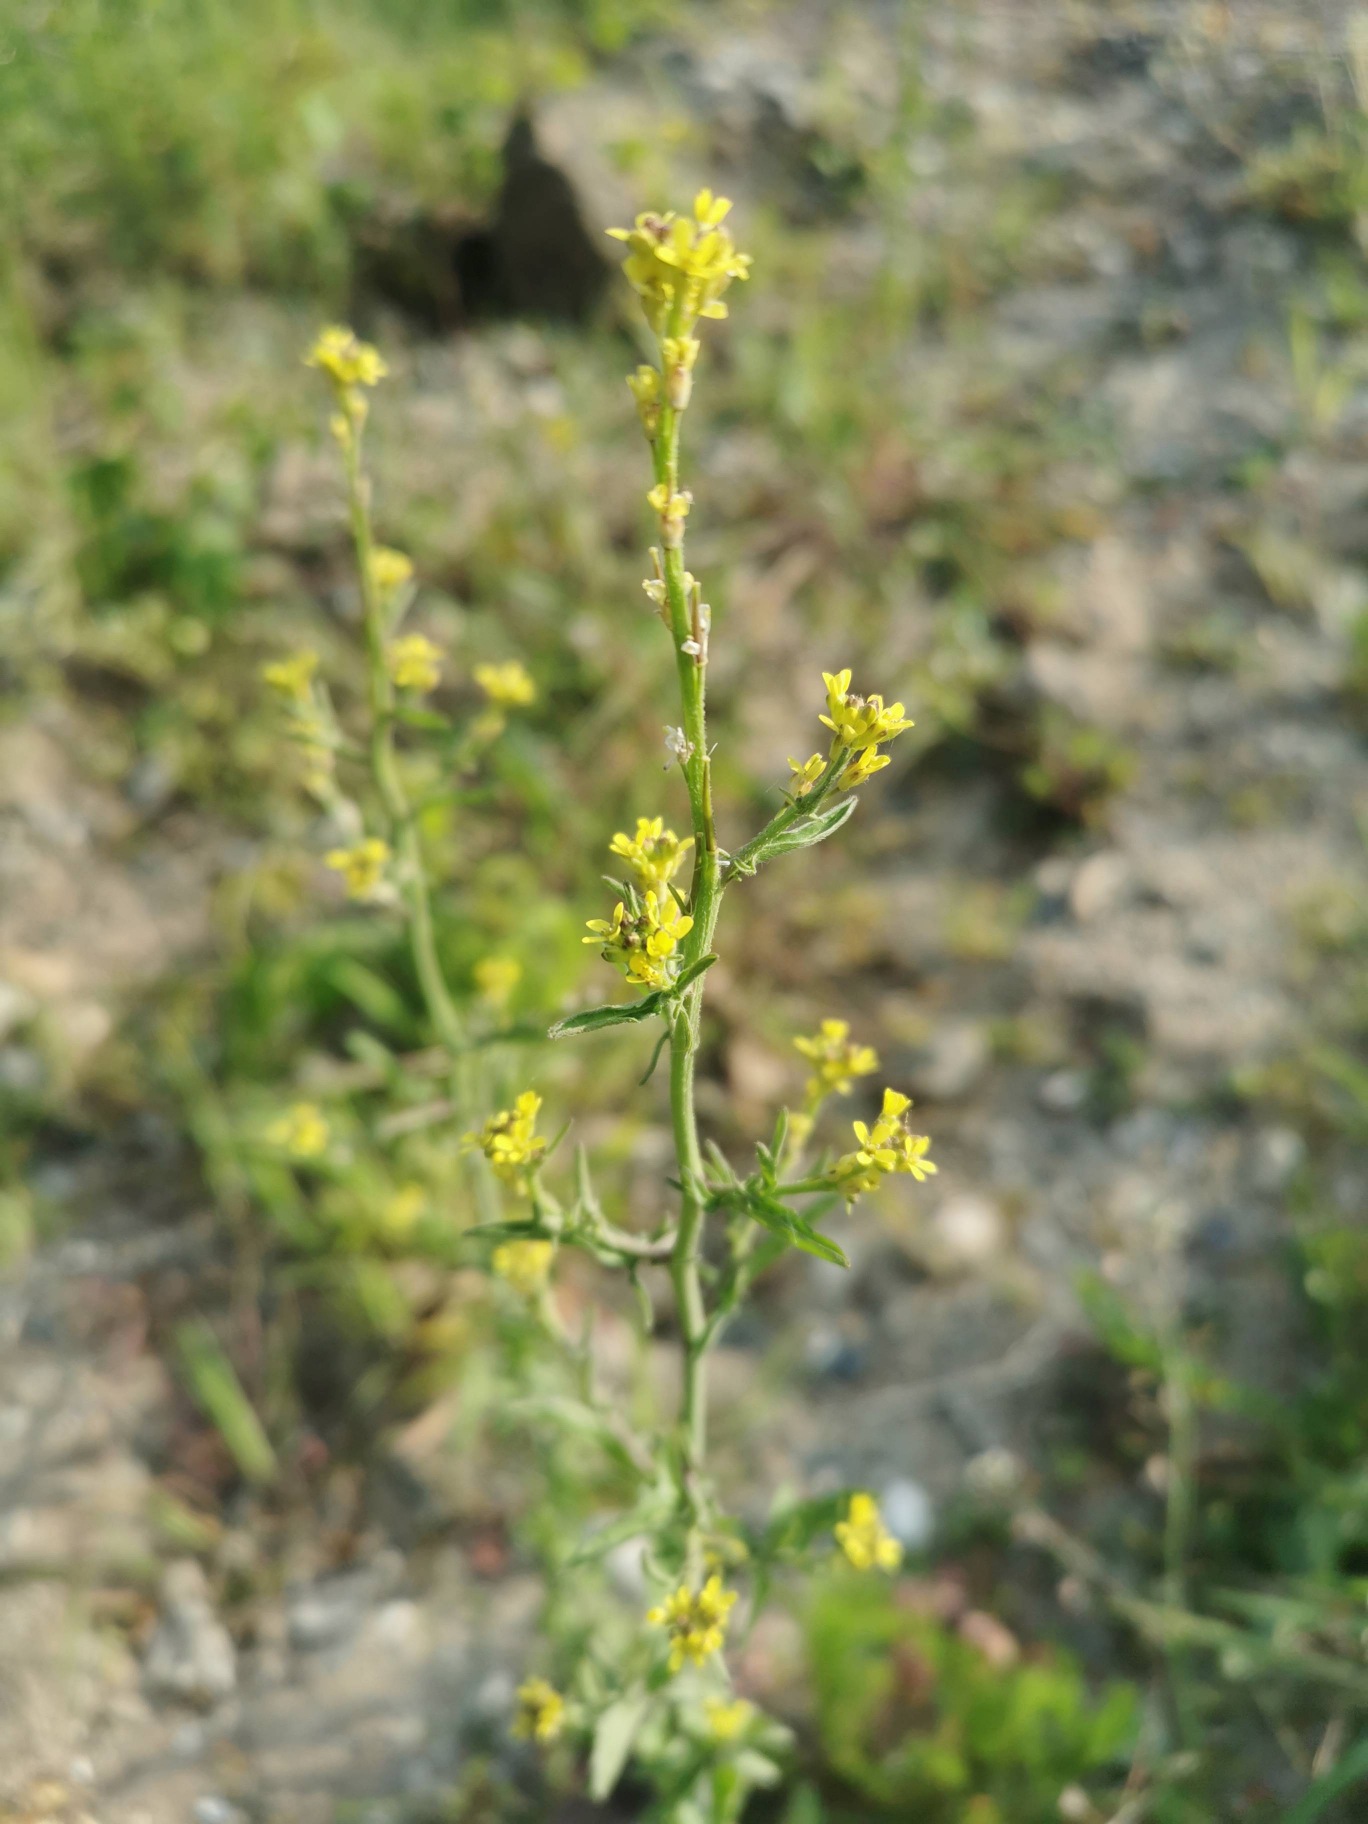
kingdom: Plantae
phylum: Tracheophyta
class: Magnoliopsida
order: Brassicales
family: Brassicaceae
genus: Sisymbrium
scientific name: Sisymbrium officinale
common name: Rank vejsennep
